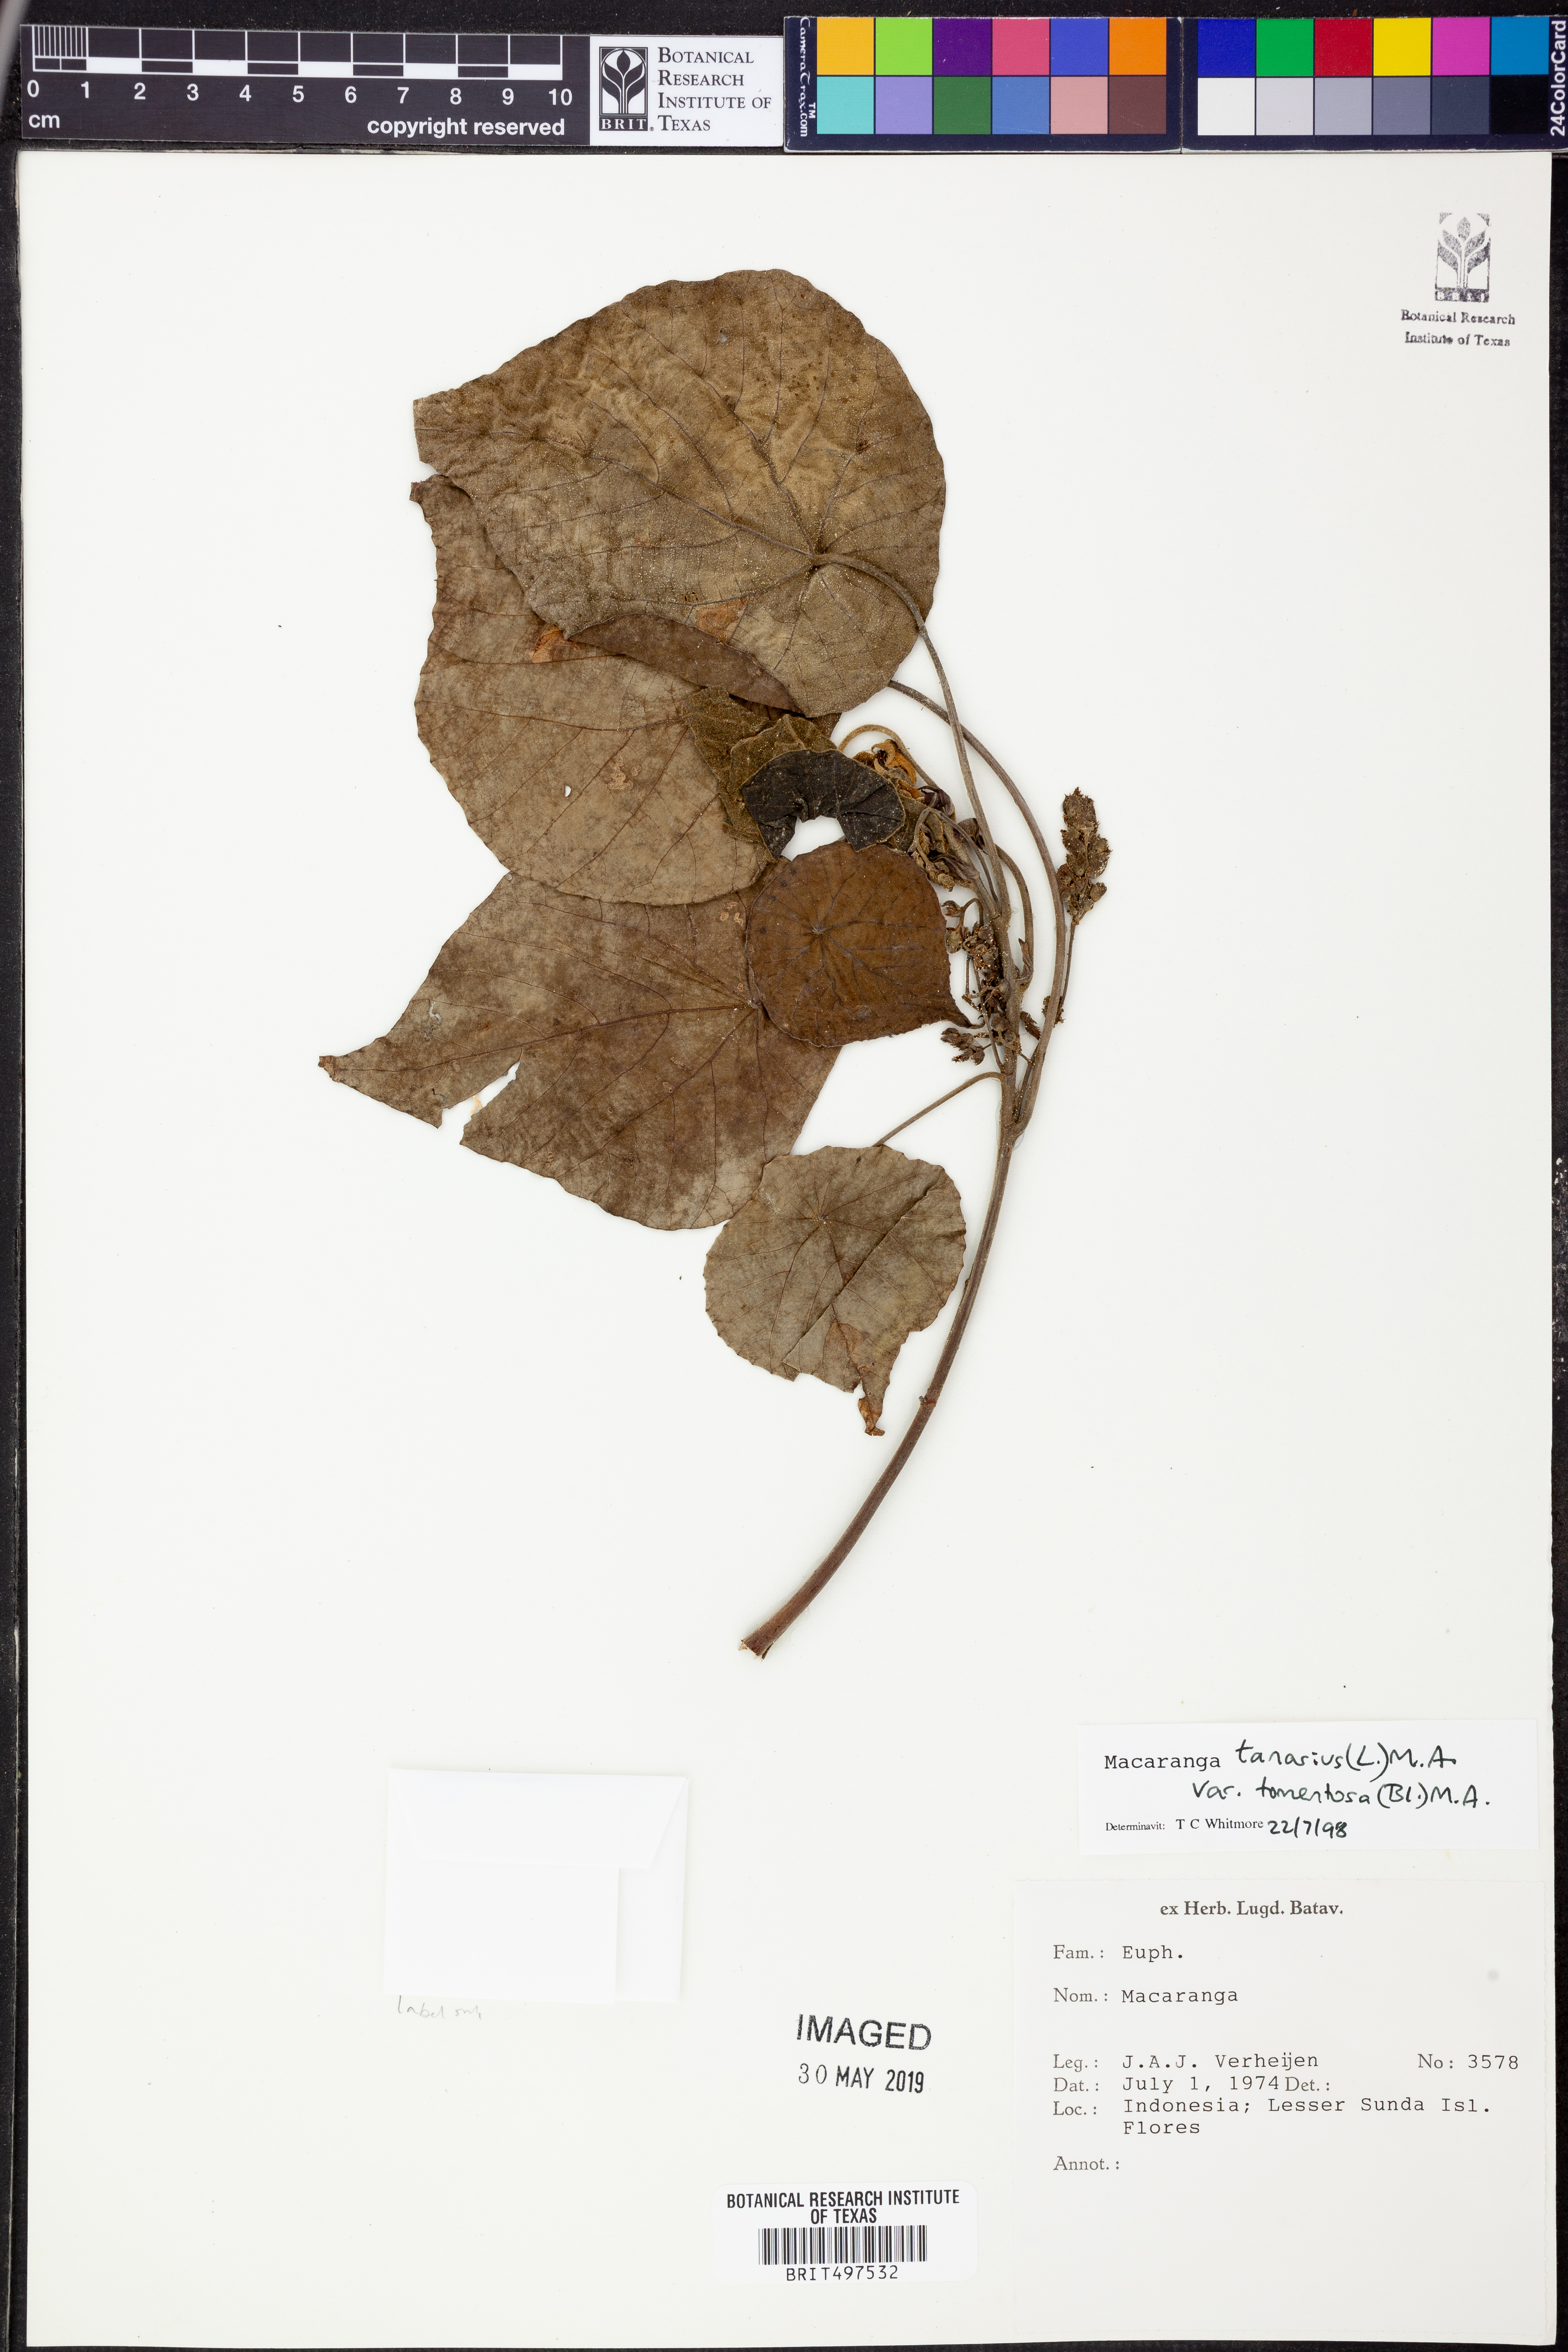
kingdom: Plantae
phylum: Tracheophyta
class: Magnoliopsida
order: Malpighiales
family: Euphorbiaceae
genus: Macaranga
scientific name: Macaranga tanarius
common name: Parasol leaf tree
